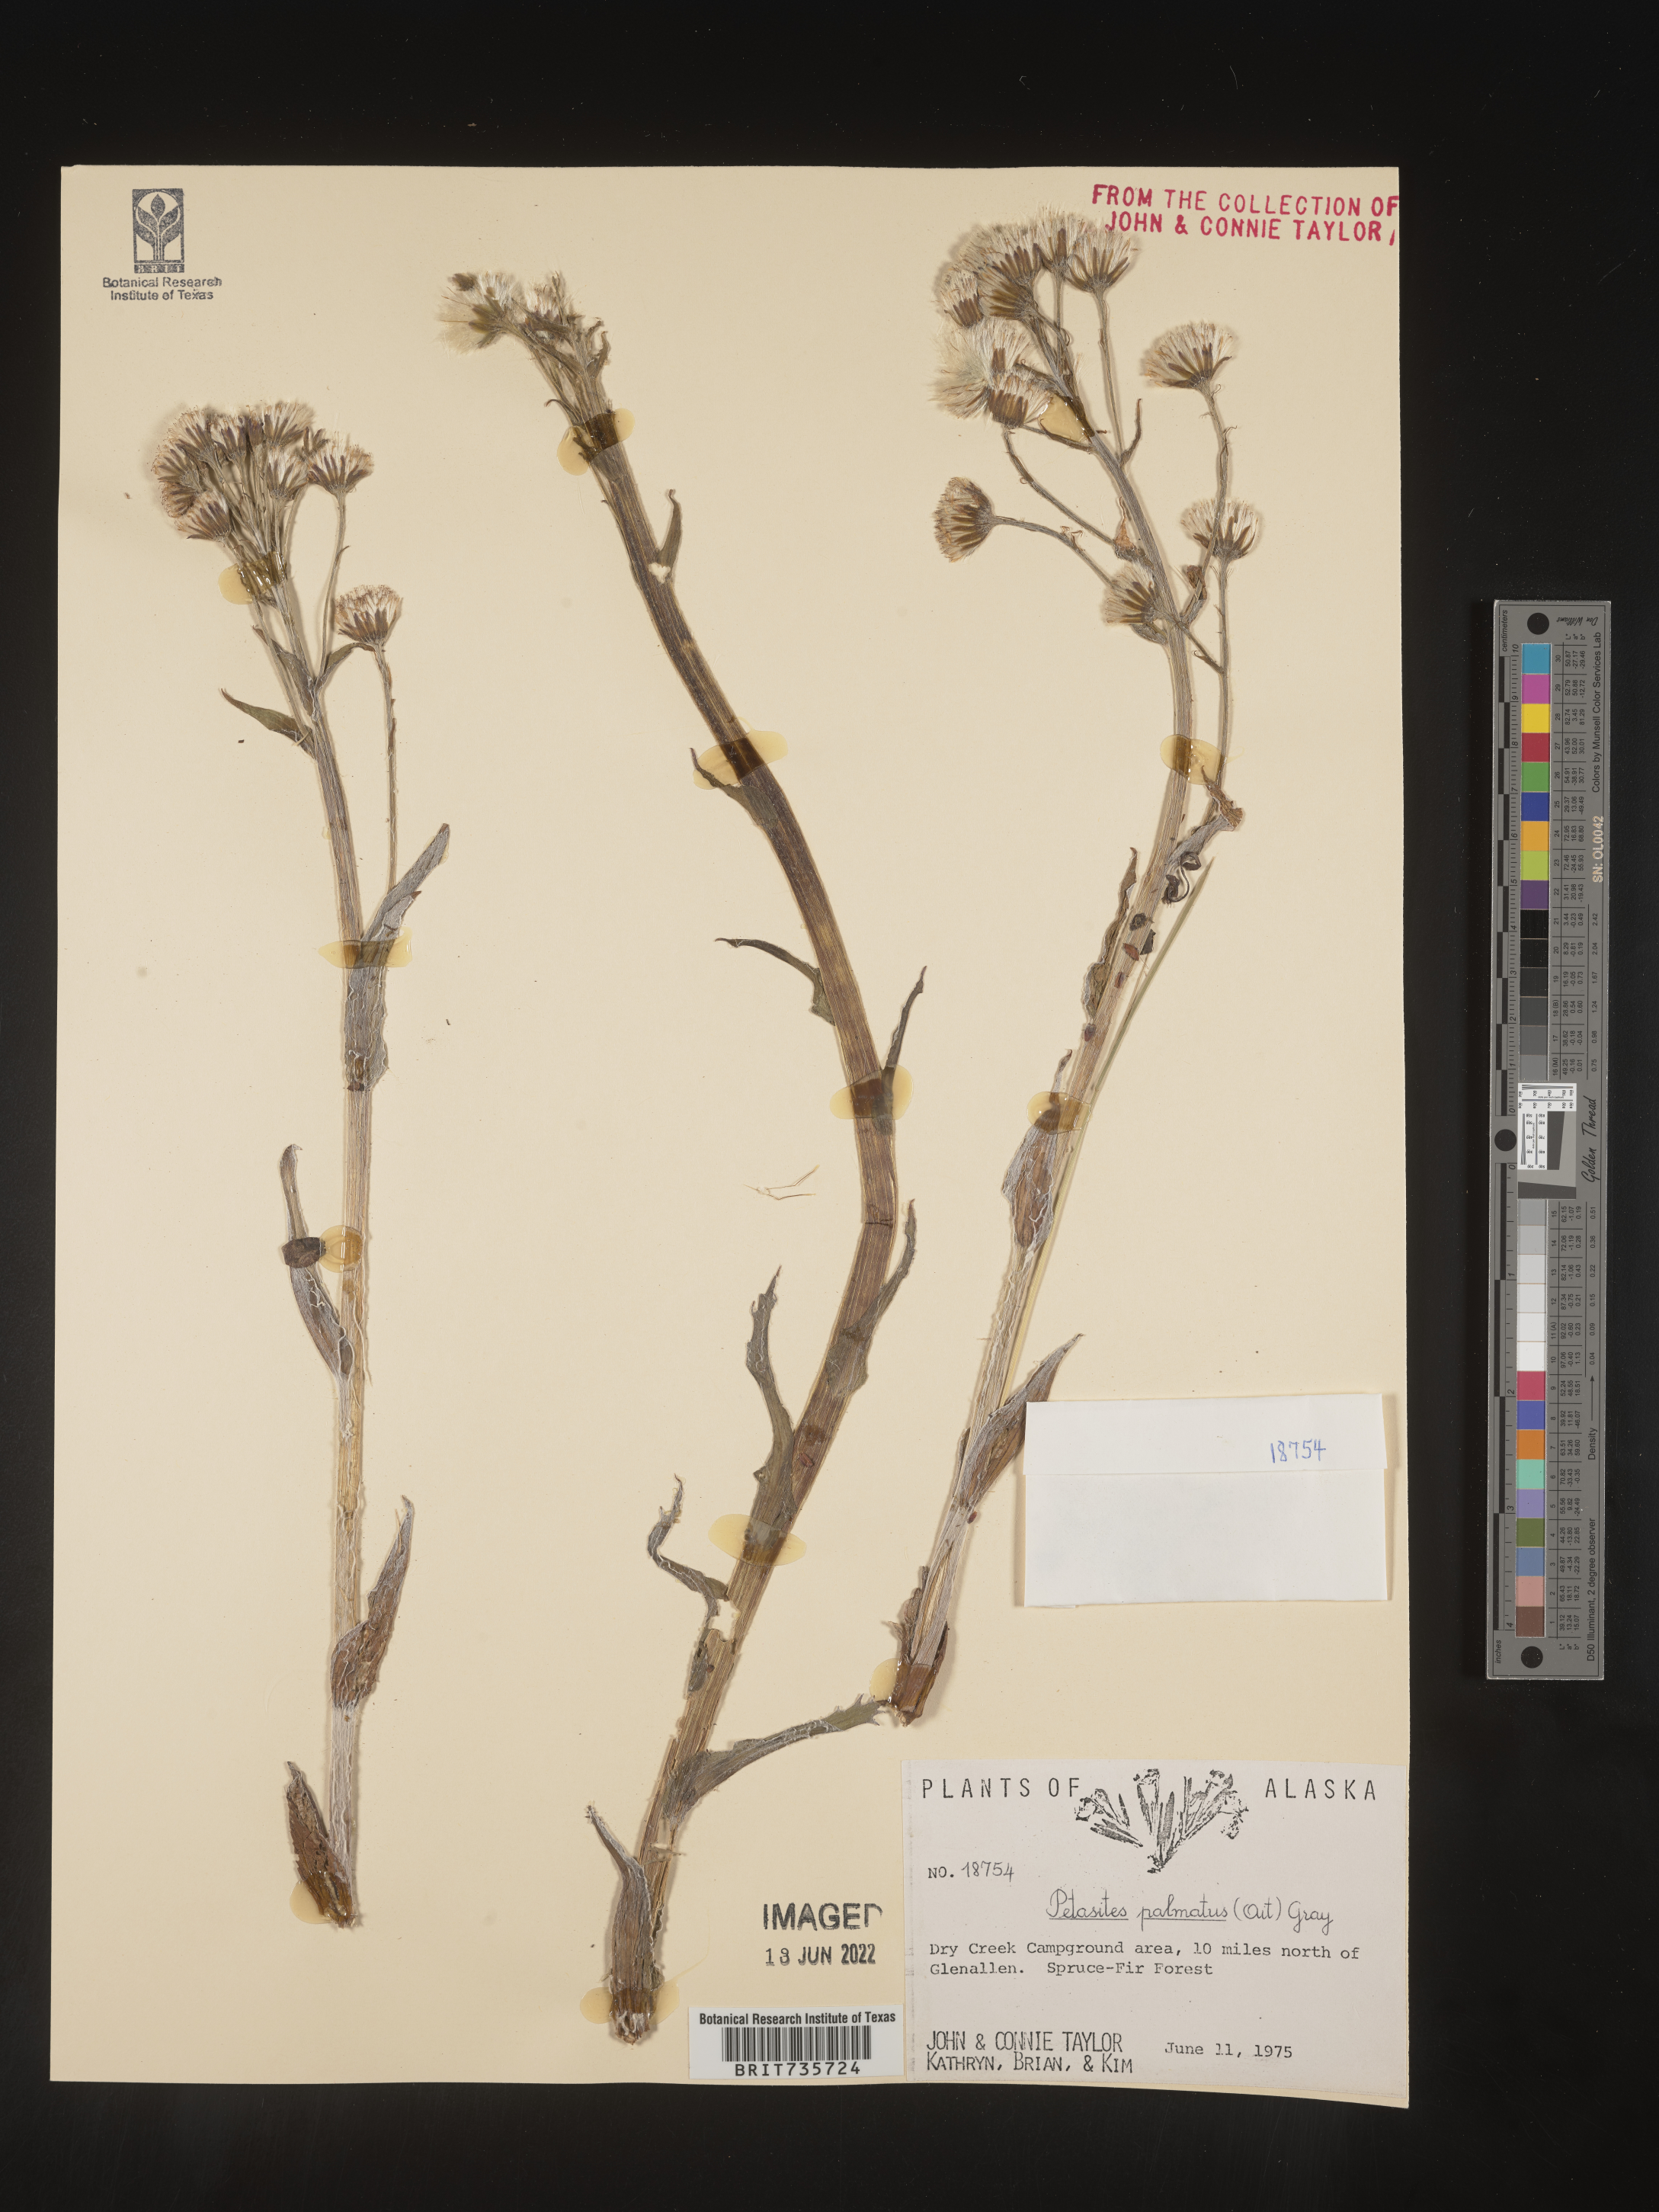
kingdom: Plantae
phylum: Tracheophyta
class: Magnoliopsida
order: Asterales
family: Asteraceae
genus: Petasites
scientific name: Petasites frigidus
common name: Arctic butterbur
